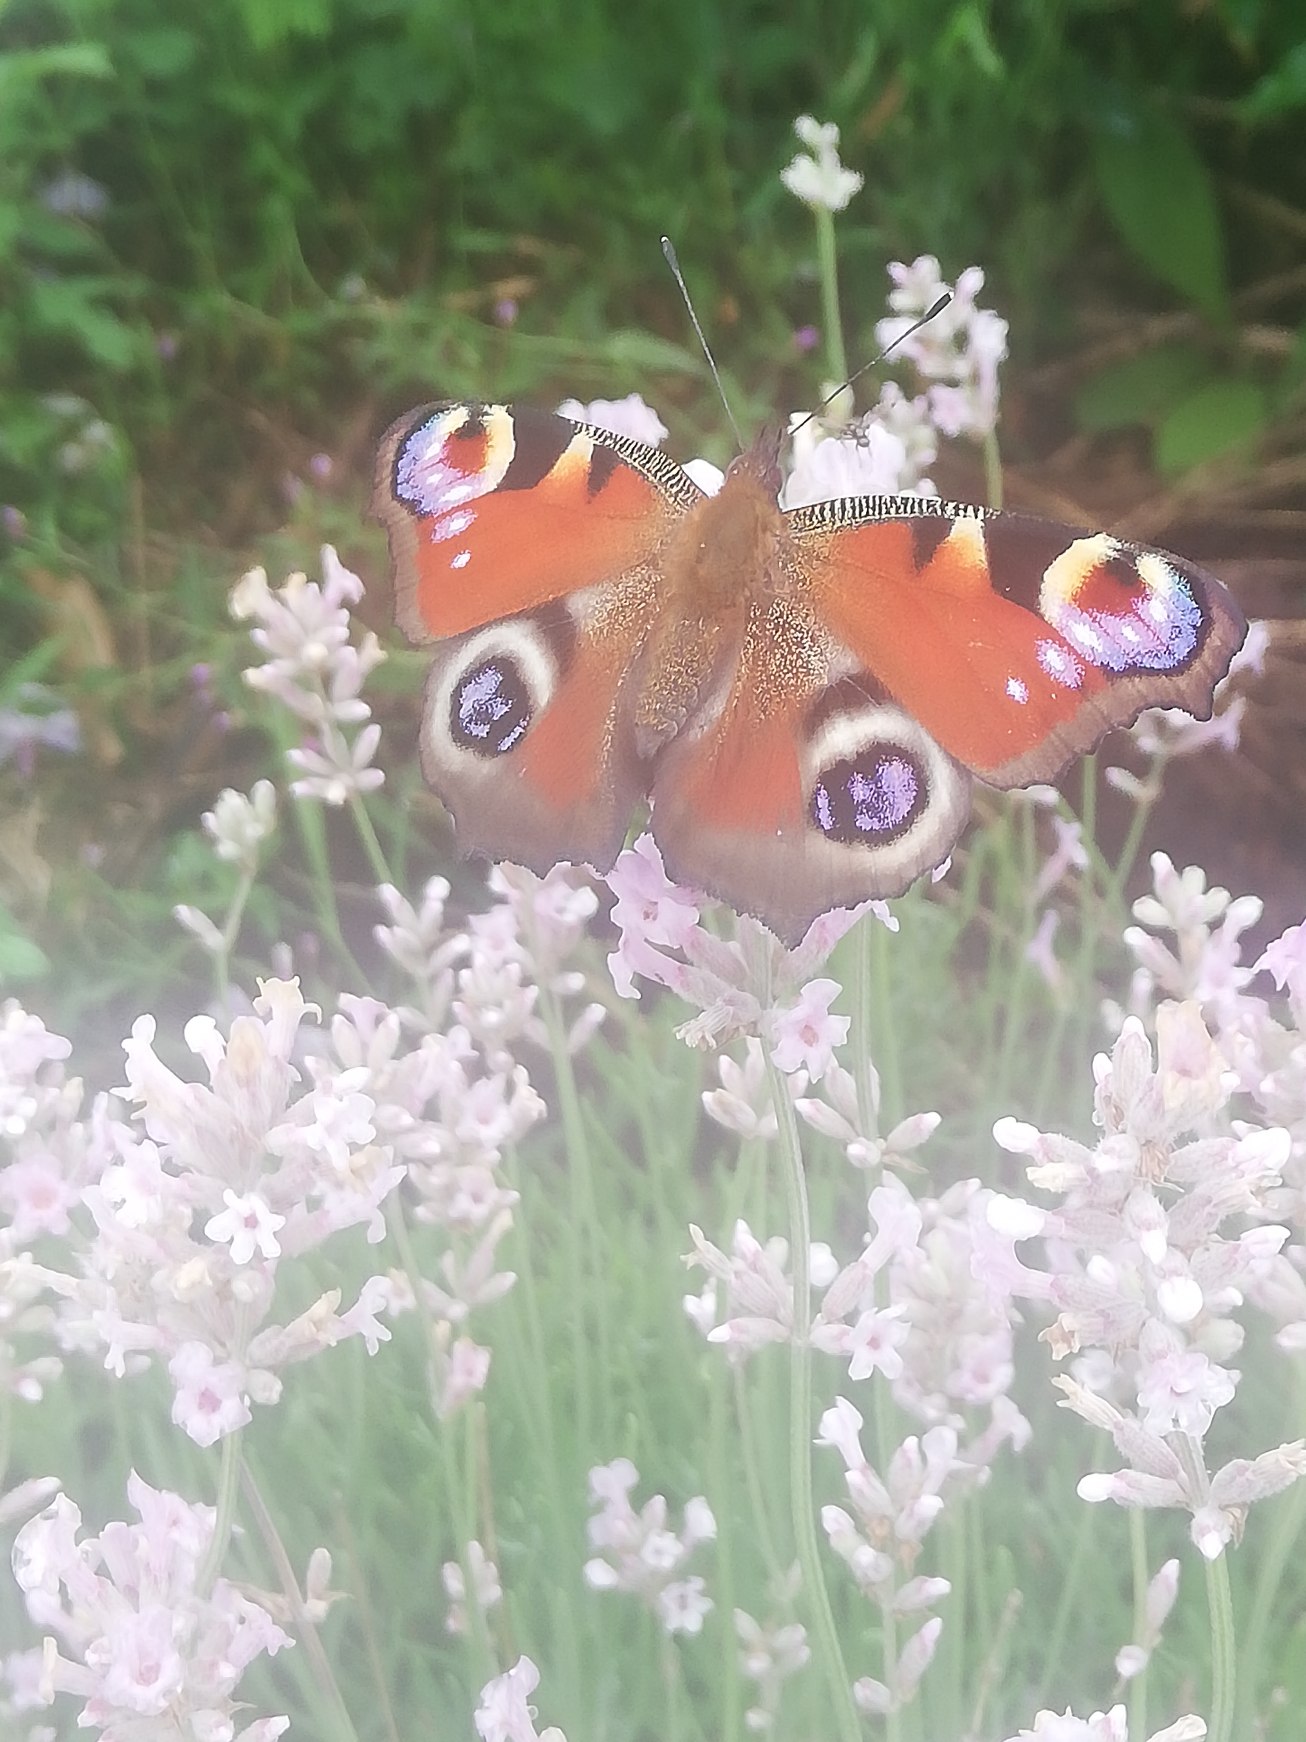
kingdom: Animalia
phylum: Arthropoda
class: Insecta
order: Lepidoptera
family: Nymphalidae
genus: Aglais
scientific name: Aglais io
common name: Dagpåfugleøje
